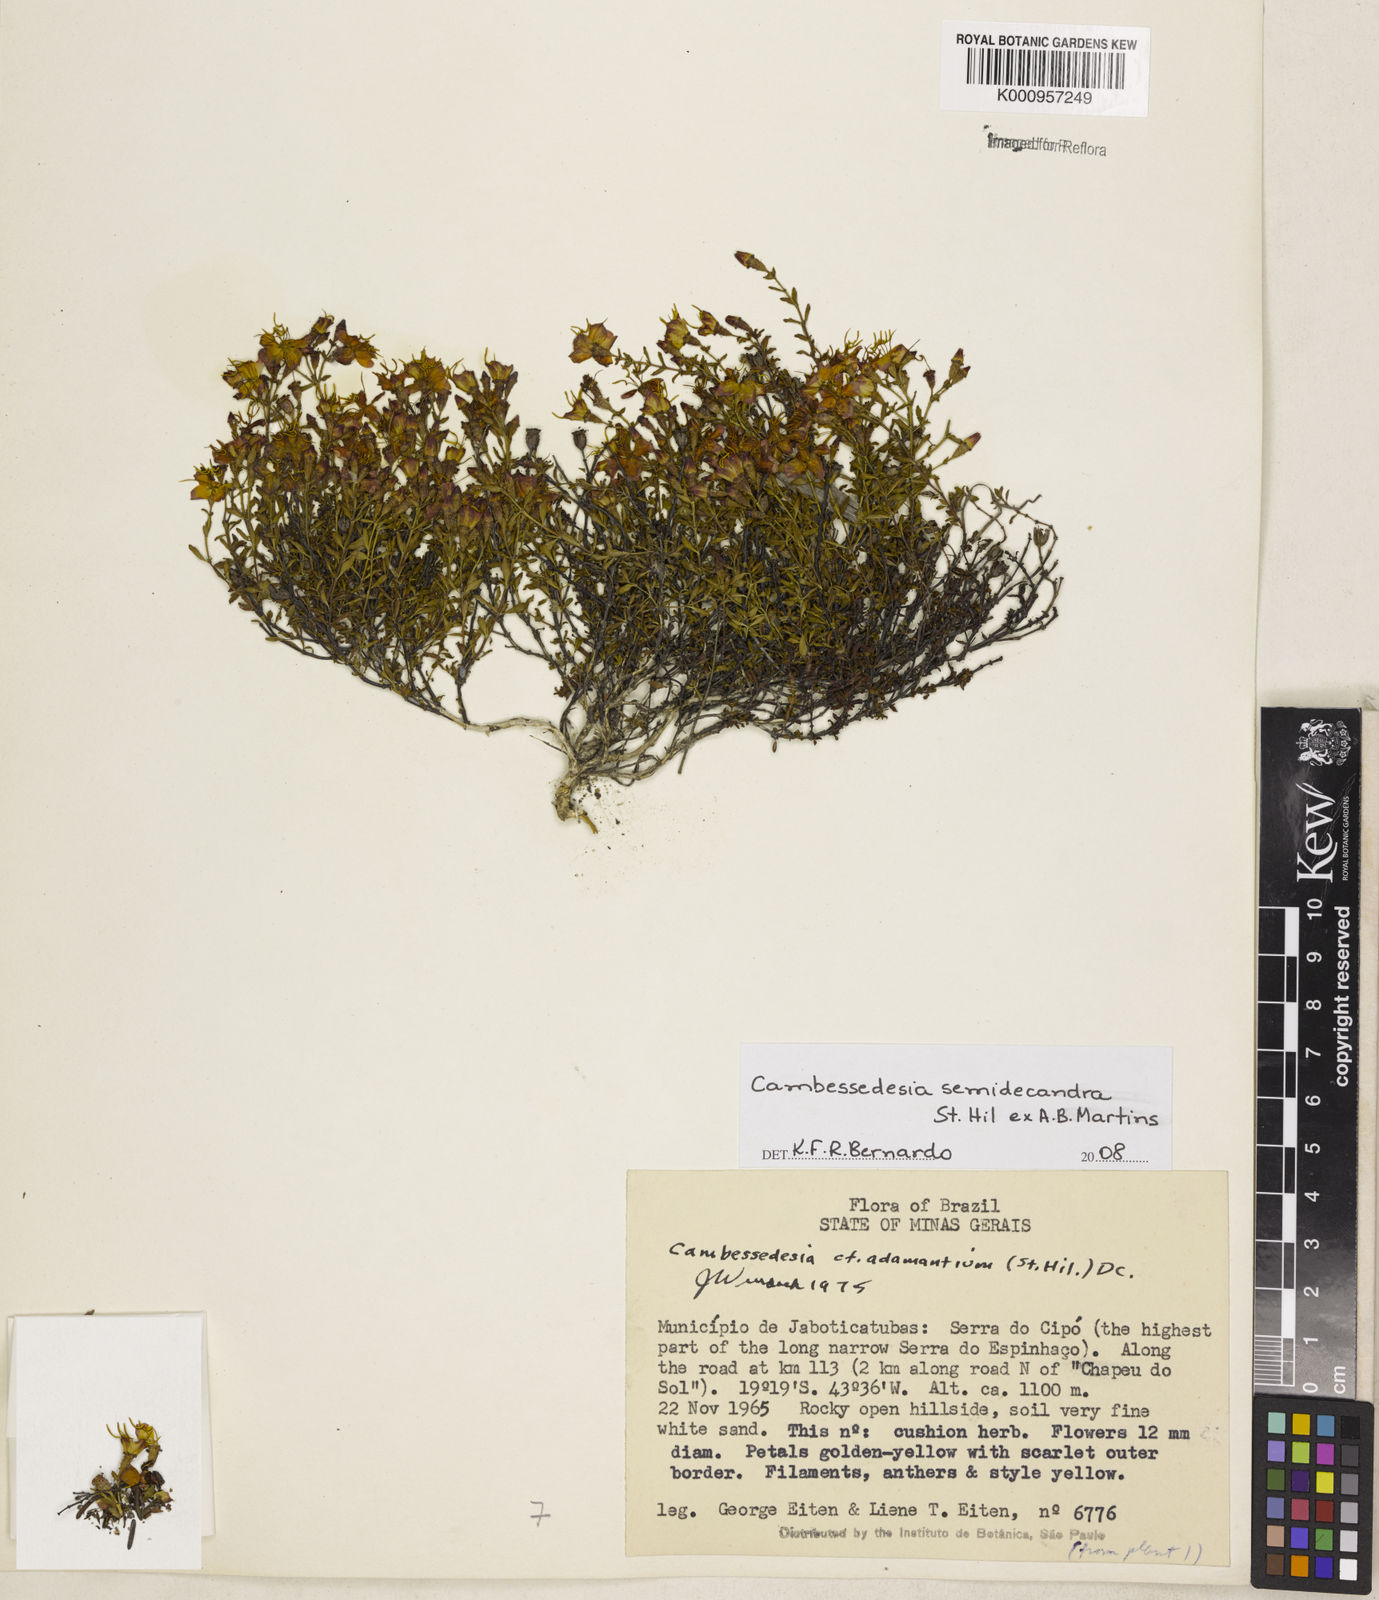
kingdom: Plantae
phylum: Tracheophyta
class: Magnoliopsida
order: Myrtales
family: Melastomataceae
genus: Cambessedesia
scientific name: Cambessedesia semidecandra
